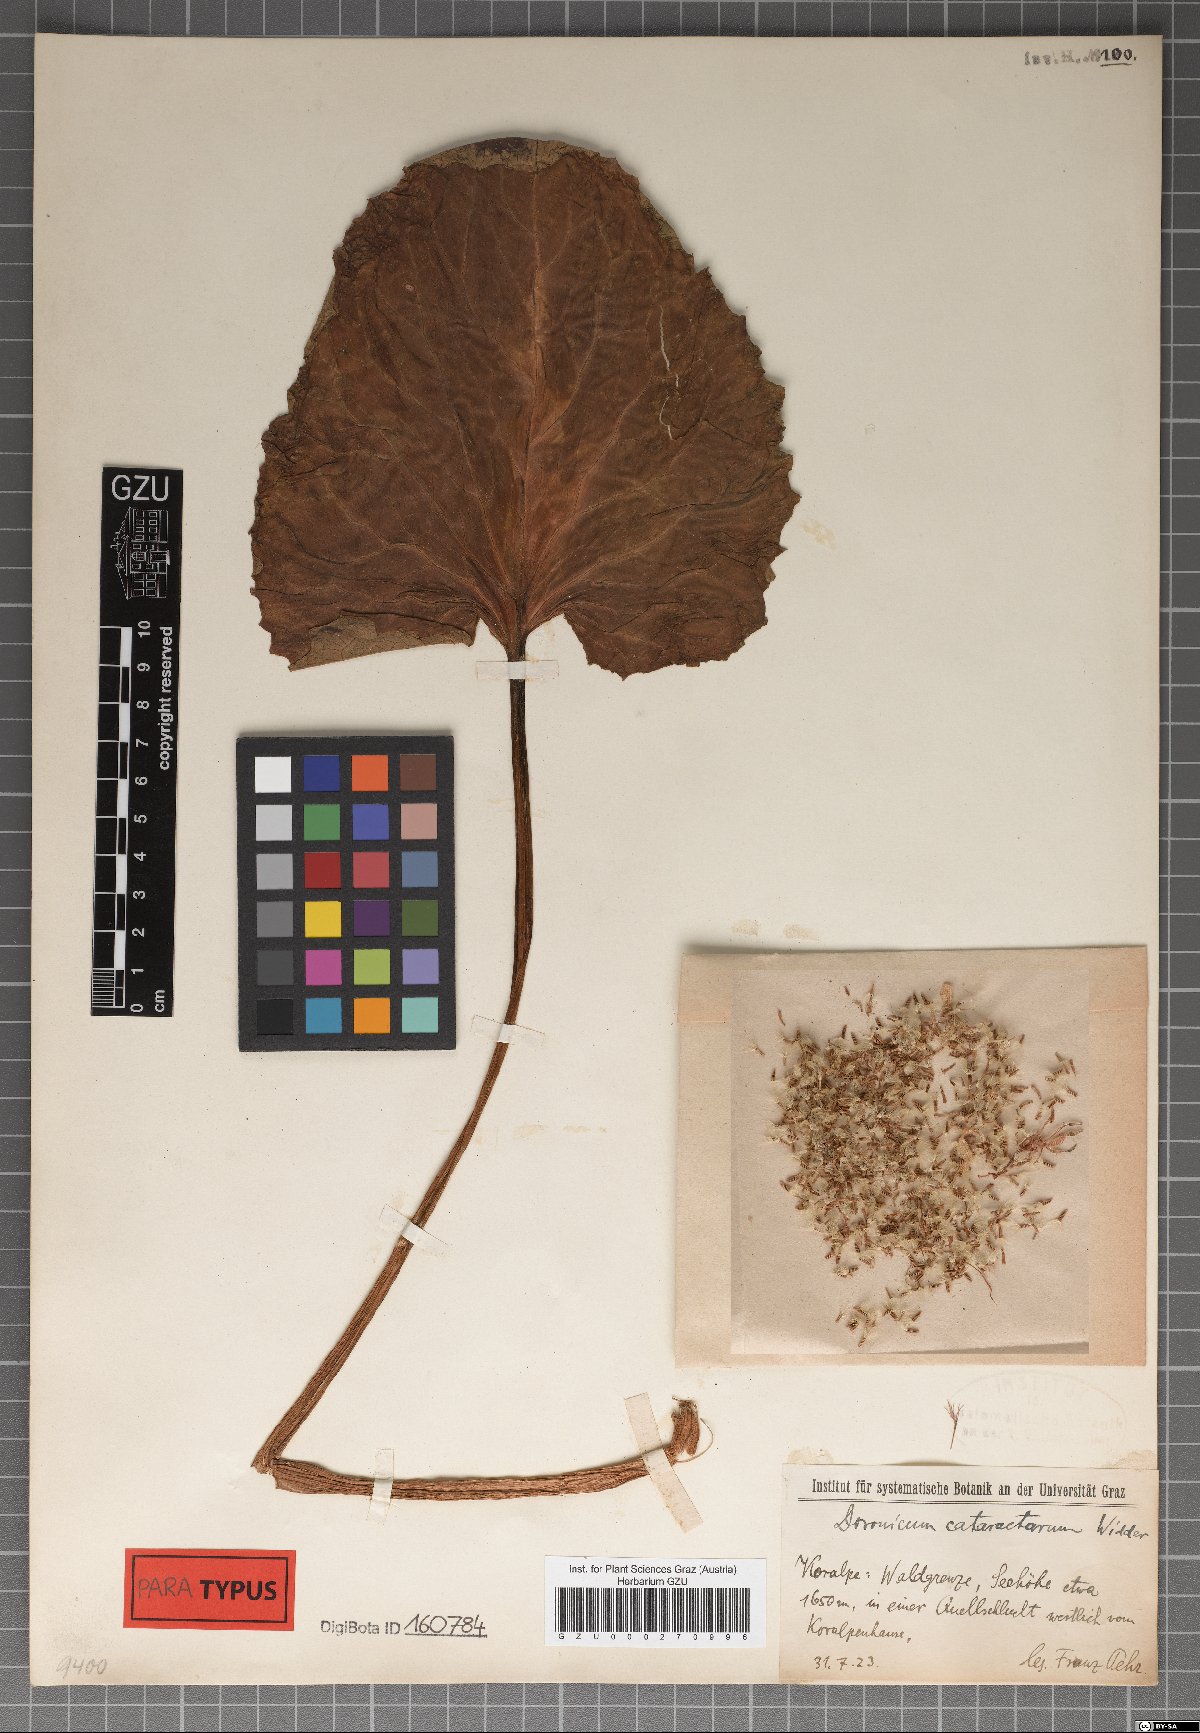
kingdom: Plantae
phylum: Tracheophyta
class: Magnoliopsida
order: Asterales
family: Asteraceae
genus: Doronicum
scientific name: Doronicum cataractarum
